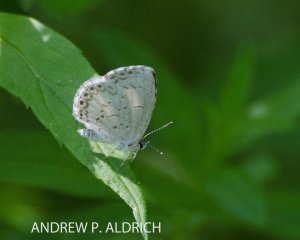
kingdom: Animalia
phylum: Arthropoda
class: Insecta
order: Lepidoptera
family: Lycaenidae
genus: Celastrina
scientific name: Celastrina
